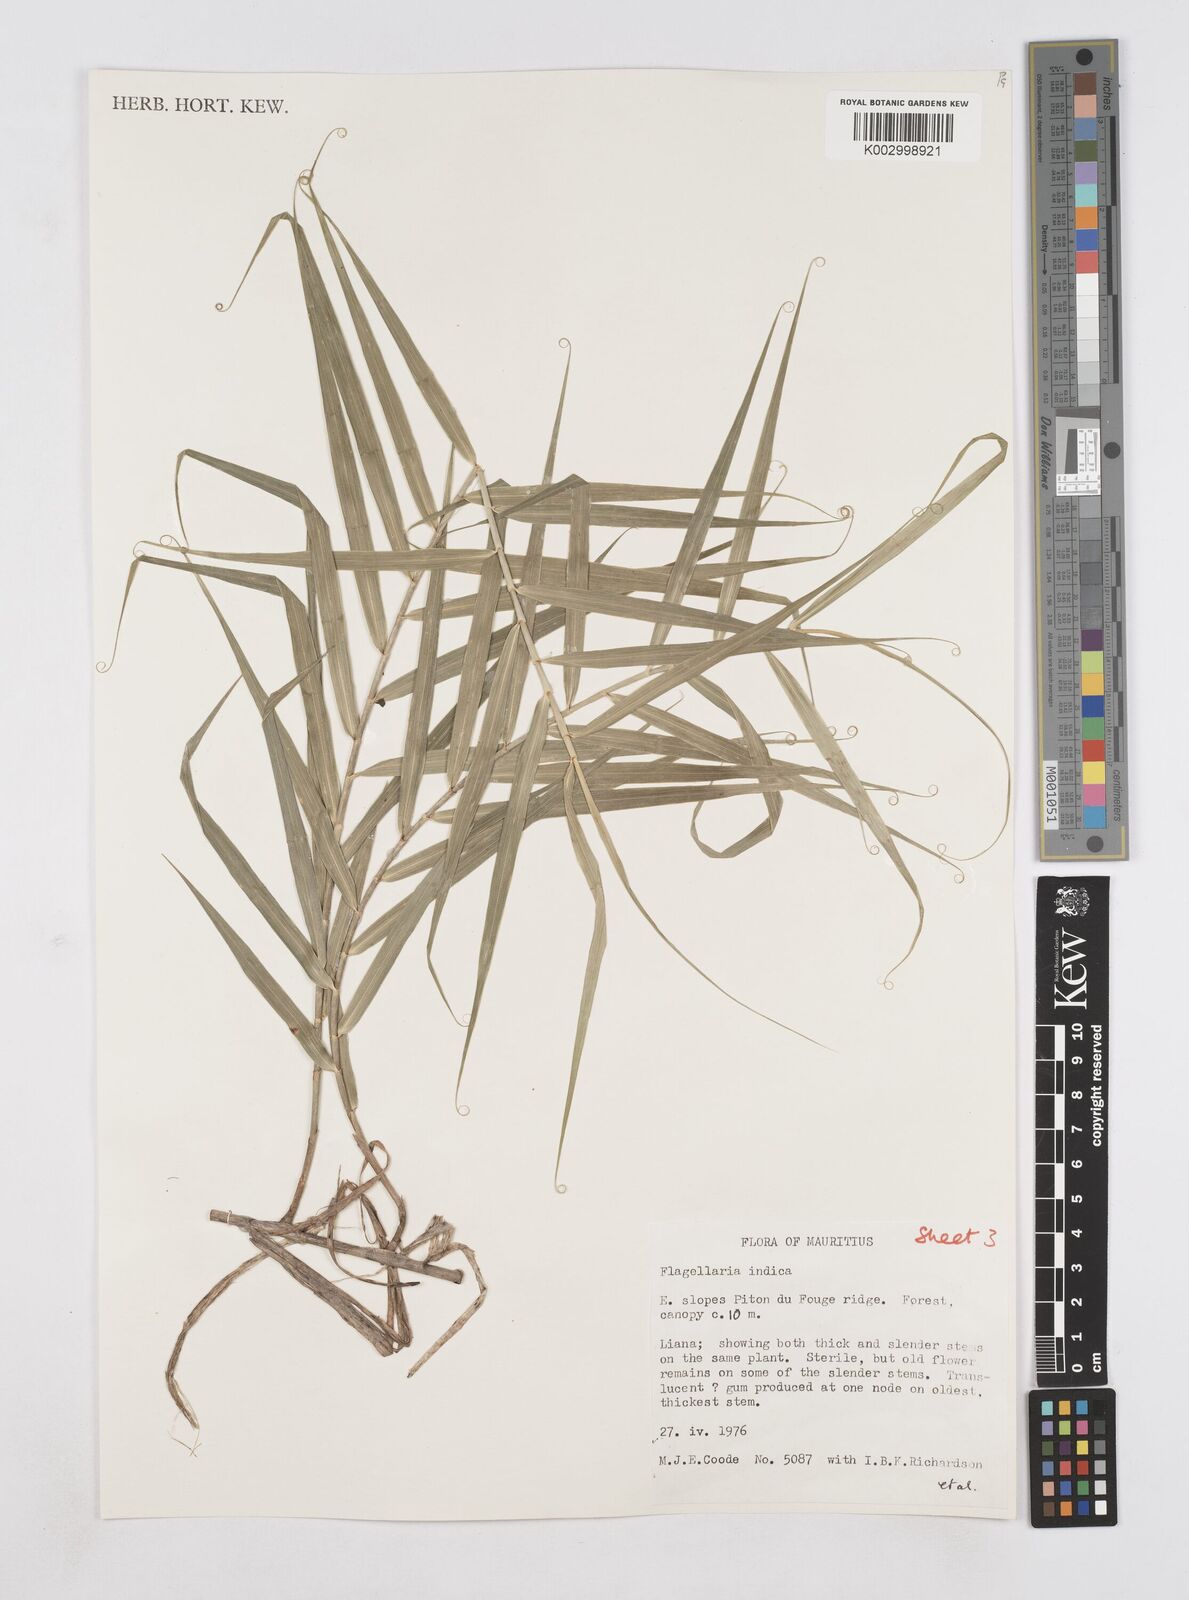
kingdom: Plantae
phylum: Tracheophyta
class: Liliopsida
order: Poales
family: Flagellariaceae
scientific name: Flagellariaceae
